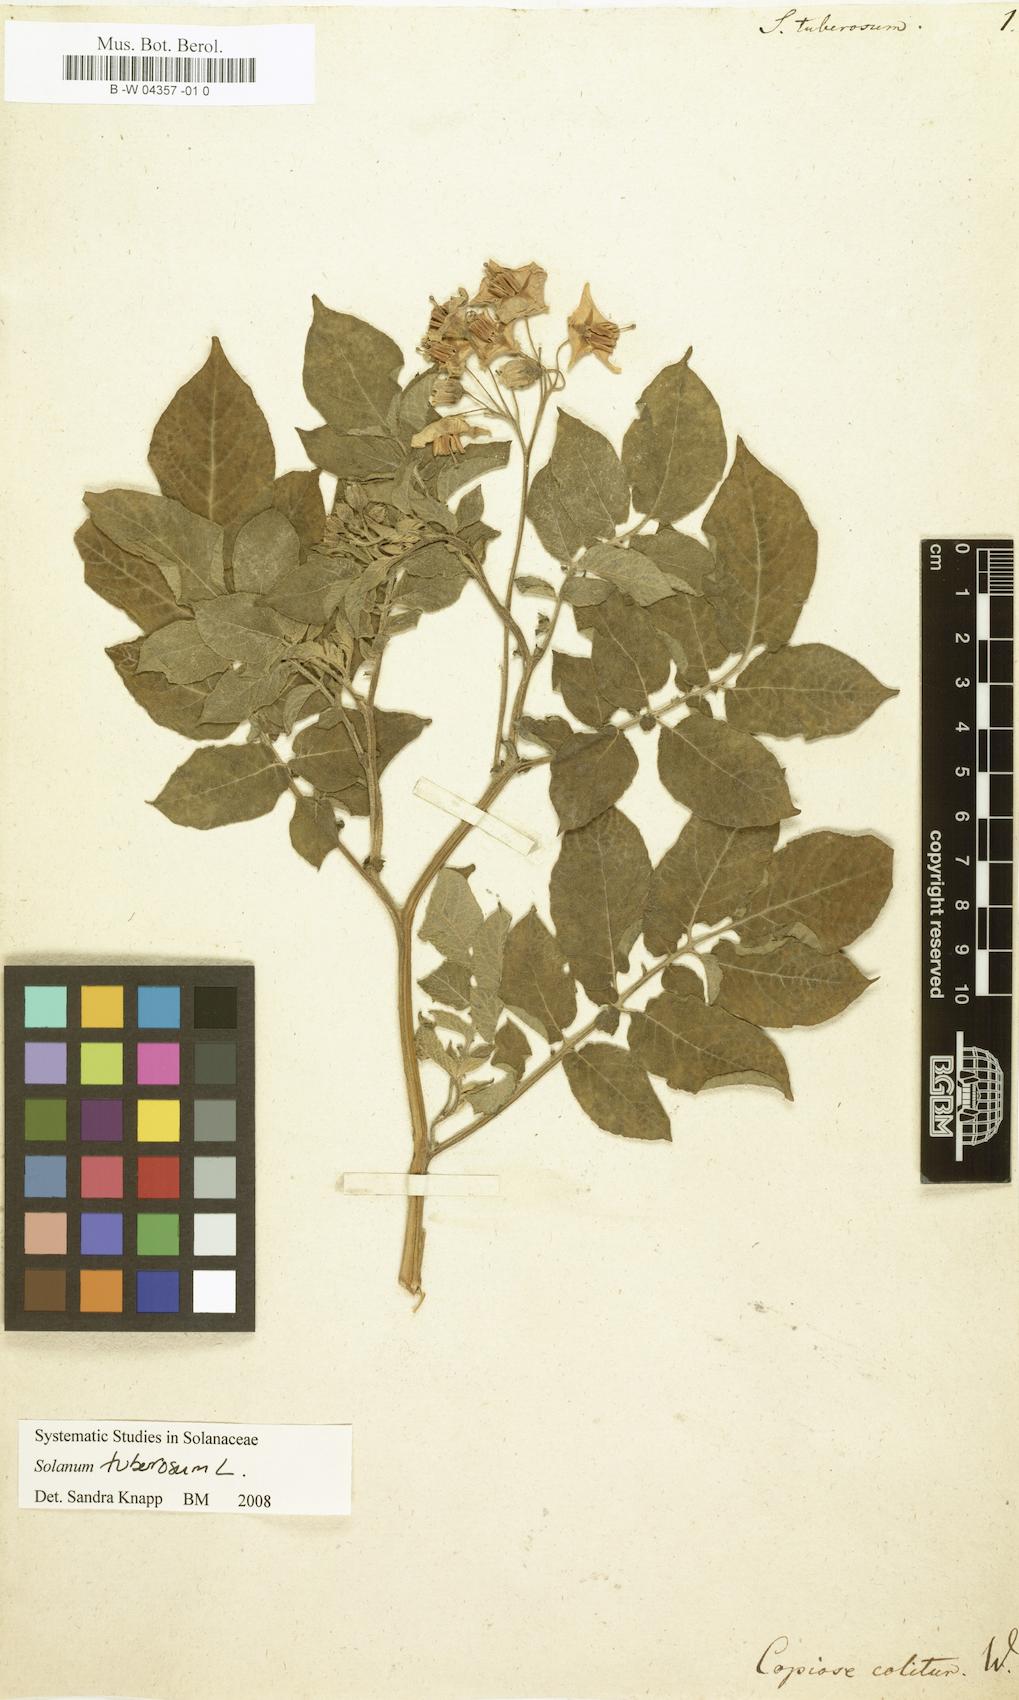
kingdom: Plantae
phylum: Tracheophyta
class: Magnoliopsida
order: Solanales
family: Solanaceae
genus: Solanum
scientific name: Solanum tuberosum
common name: Potato
